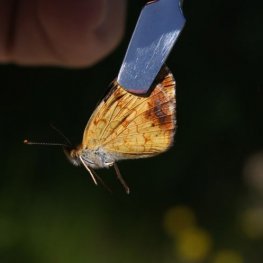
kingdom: Animalia
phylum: Arthropoda
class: Insecta
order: Lepidoptera
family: Nymphalidae
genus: Phyciodes
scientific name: Phyciodes tharos
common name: Northern Crescent
